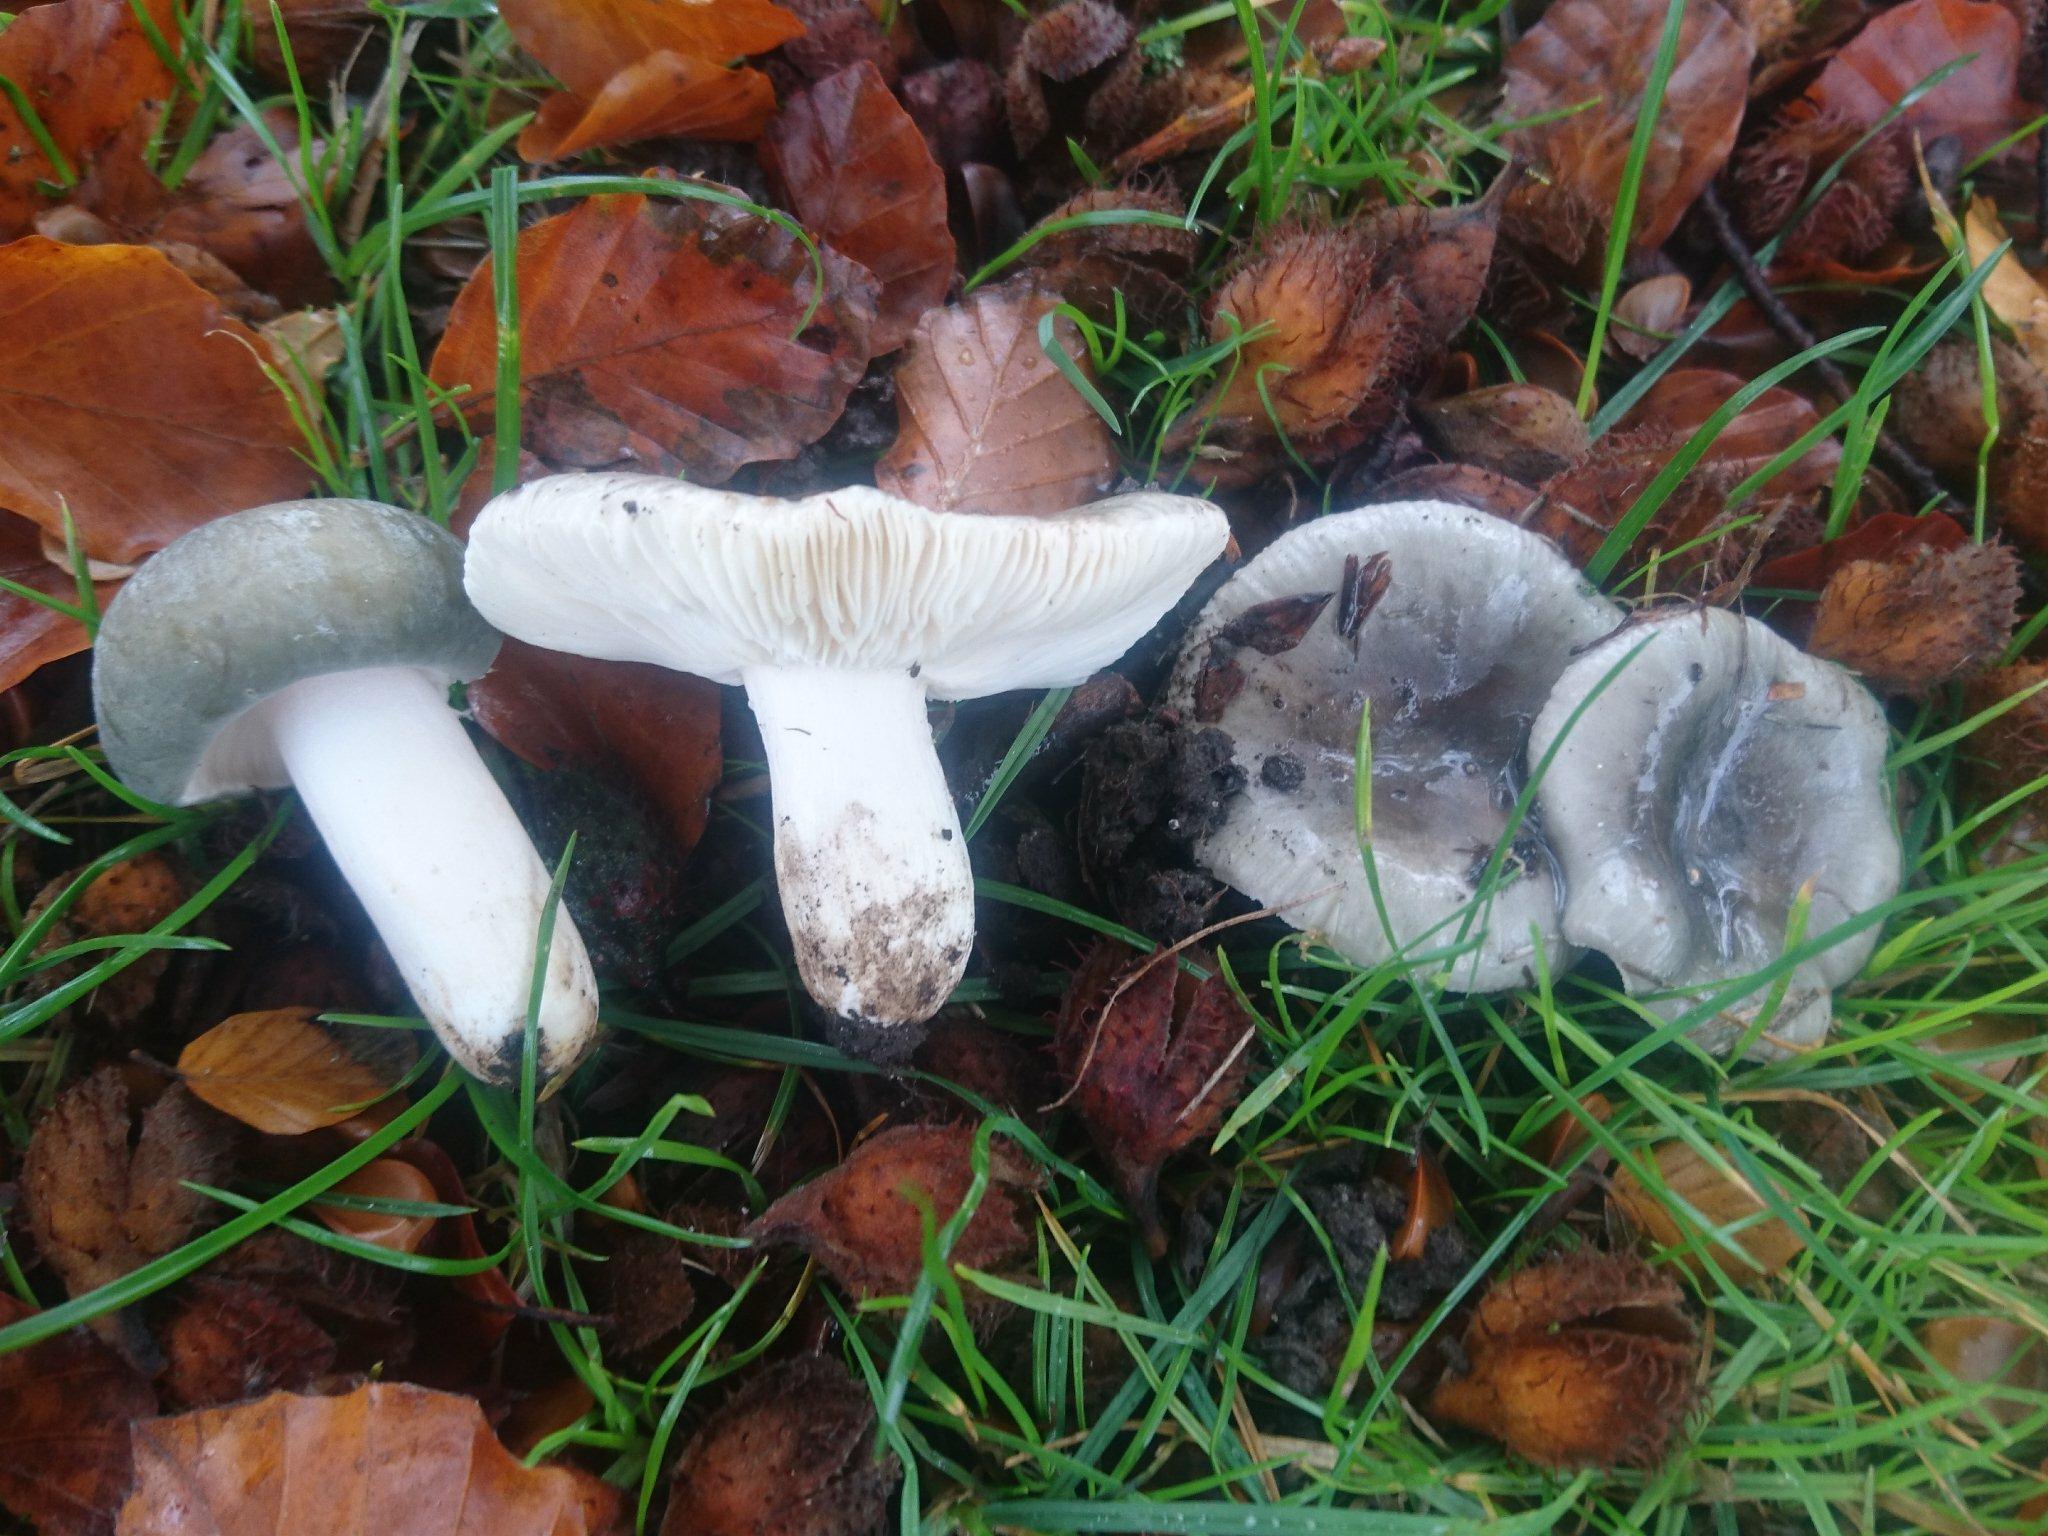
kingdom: Fungi
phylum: Basidiomycota
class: Agaricomycetes
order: Russulales
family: Russulaceae
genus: Russula
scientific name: Russula parazurea
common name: blågrå skørhat
